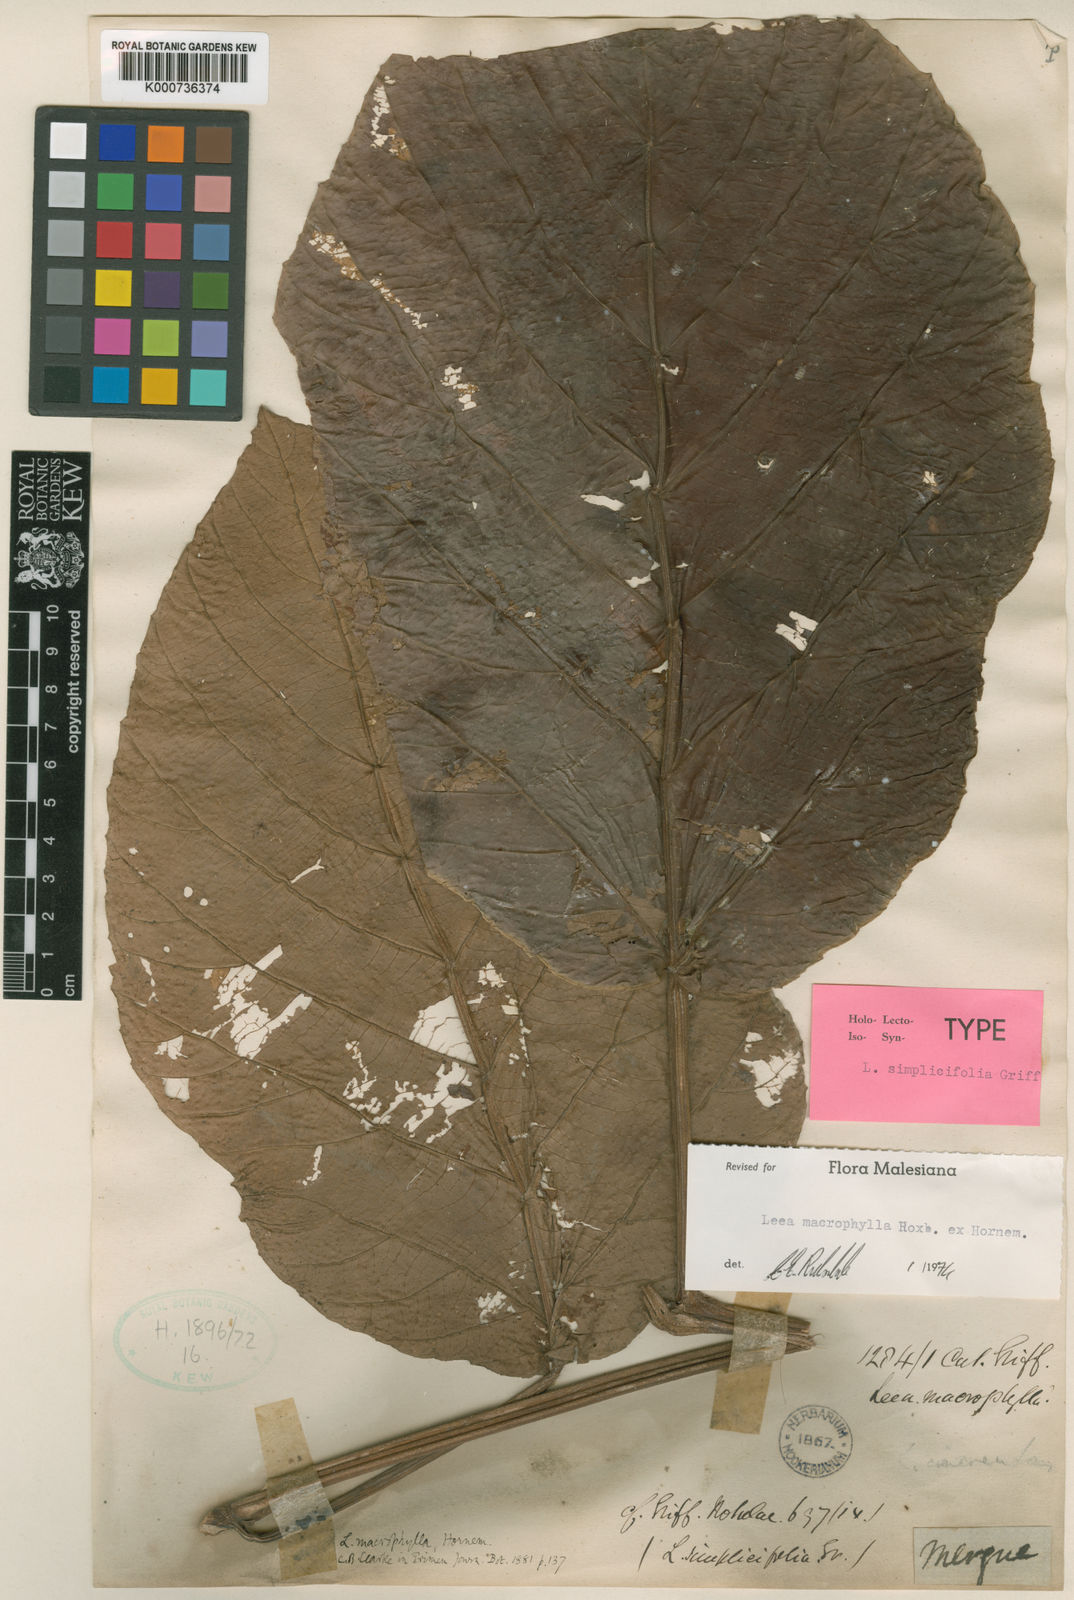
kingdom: Plantae
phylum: Tracheophyta
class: Magnoliopsida
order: Vitales
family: Vitaceae
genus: Leea
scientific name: Leea macrophylla
